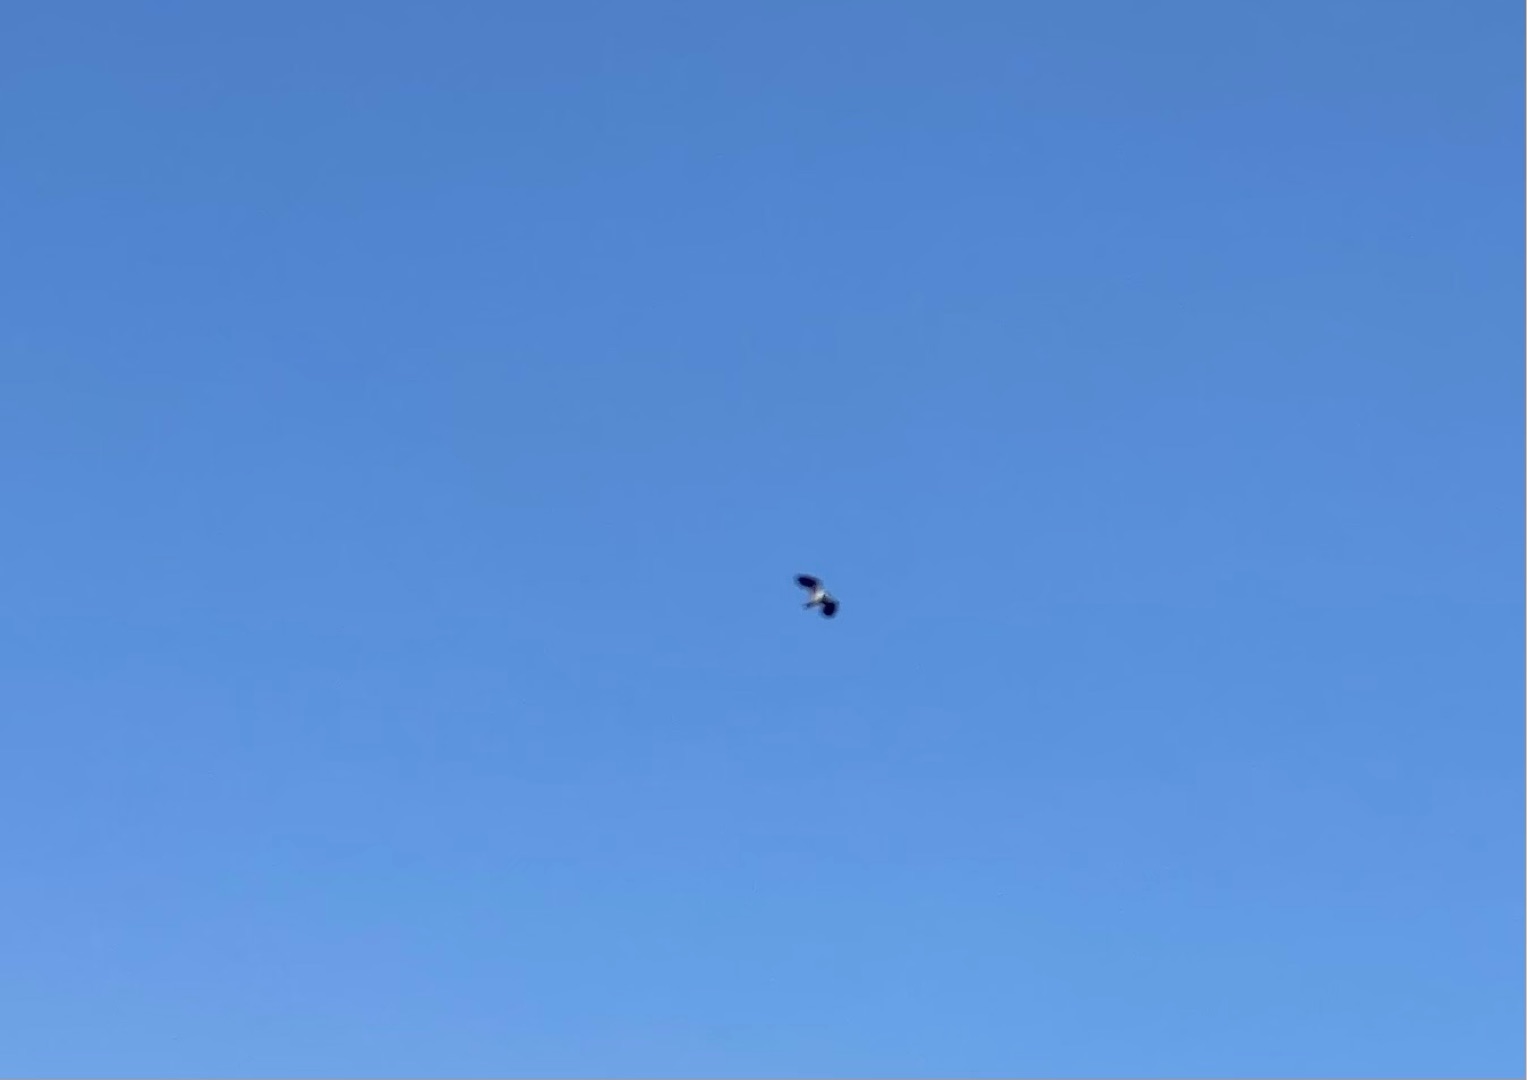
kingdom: Animalia
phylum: Chordata
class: Aves
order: Charadriiformes
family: Charadriidae
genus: Vanellus
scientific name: Vanellus vanellus
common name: Vibe
